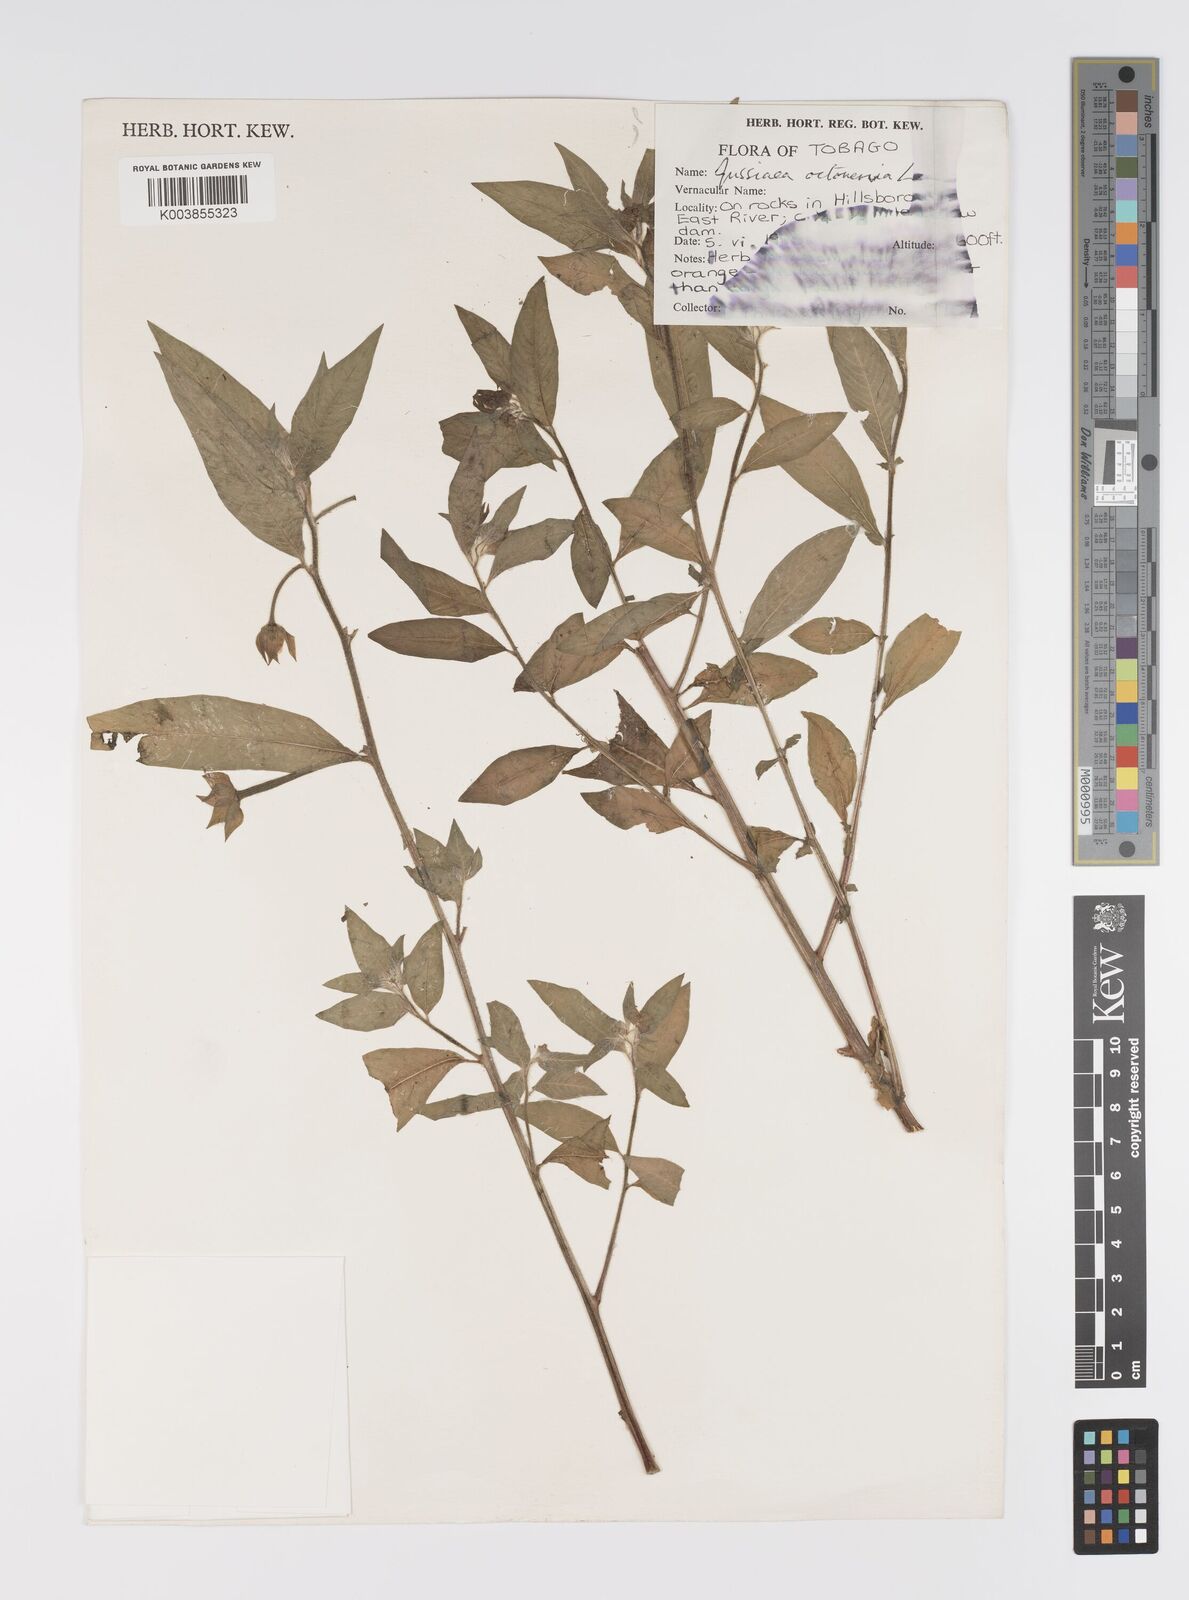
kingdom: Plantae
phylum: Tracheophyta
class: Magnoliopsida
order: Myrtales
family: Onagraceae
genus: Ludwigia
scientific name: Ludwigia
